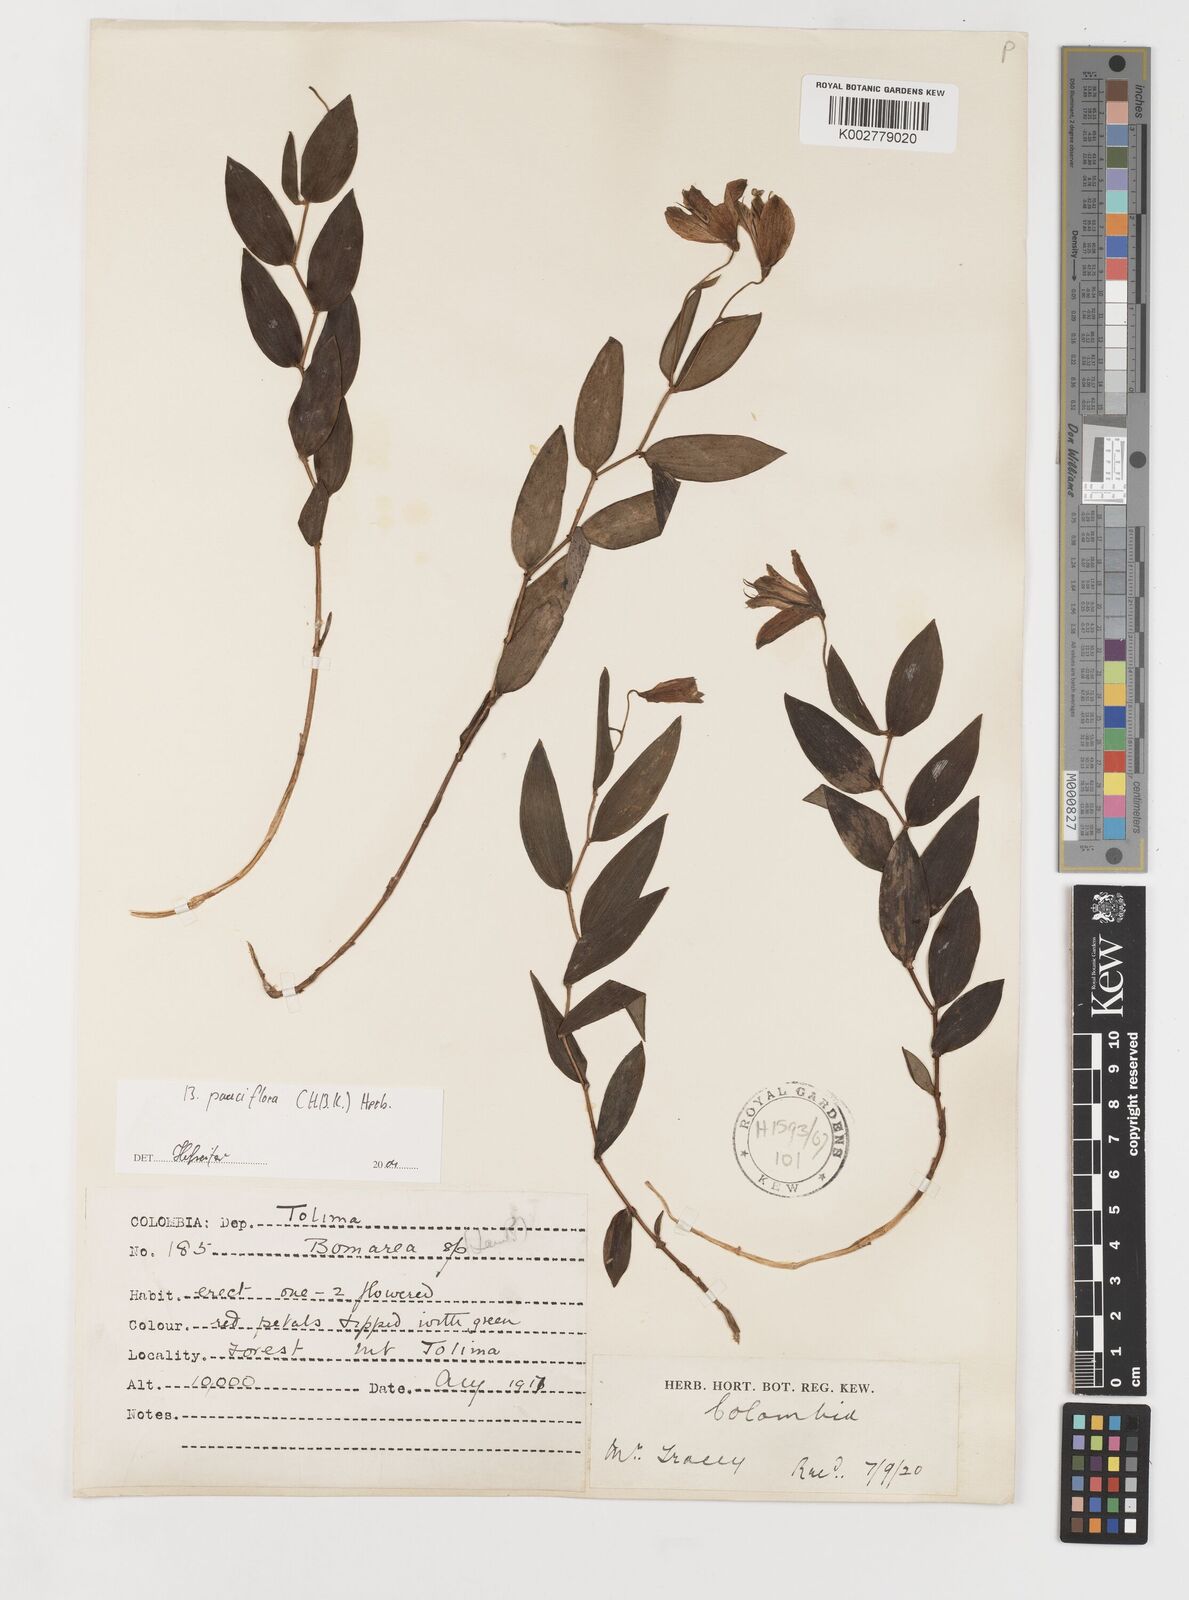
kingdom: Plantae
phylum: Tracheophyta
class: Liliopsida
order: Liliales
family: Alstroemeriaceae
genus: Bomarea
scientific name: Bomarea pauciflora
